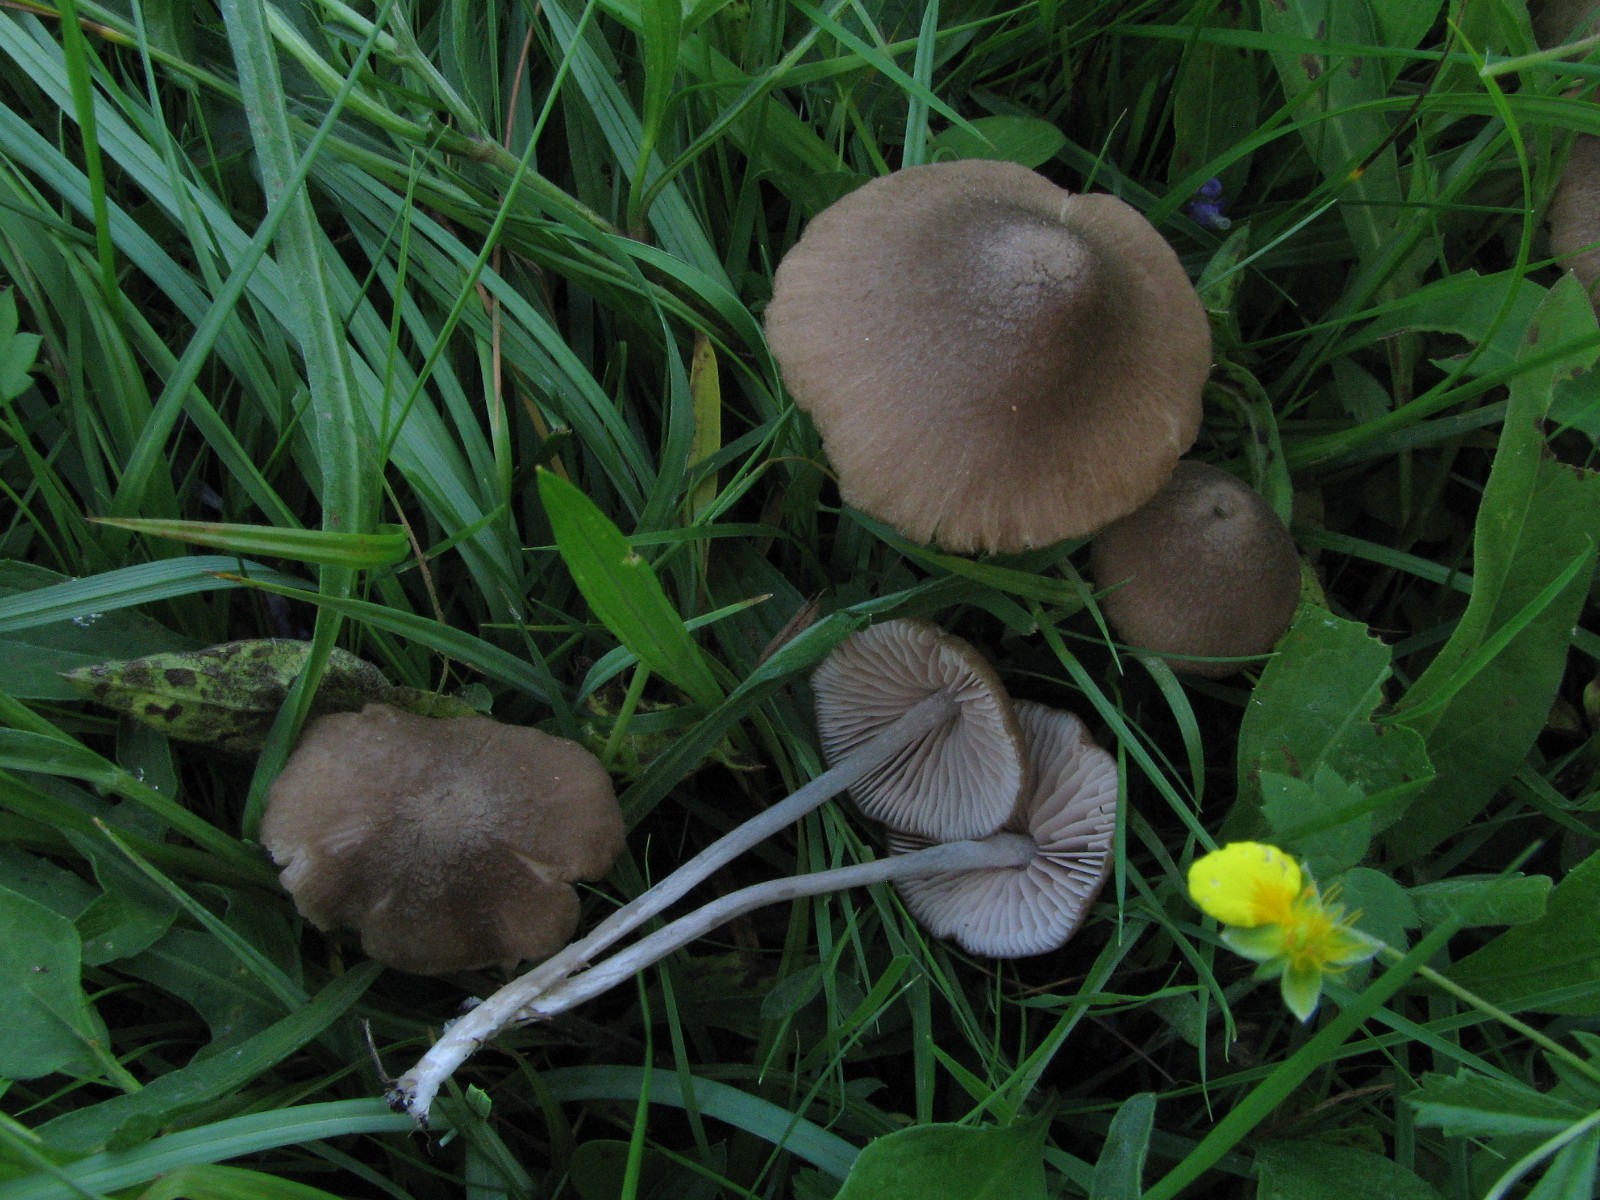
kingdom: Fungi
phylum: Basidiomycota
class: Agaricomycetes
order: Agaricales
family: Entolomataceae
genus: Entoloma
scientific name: Entoloma griseocyaneum
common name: gråblå rødblad
